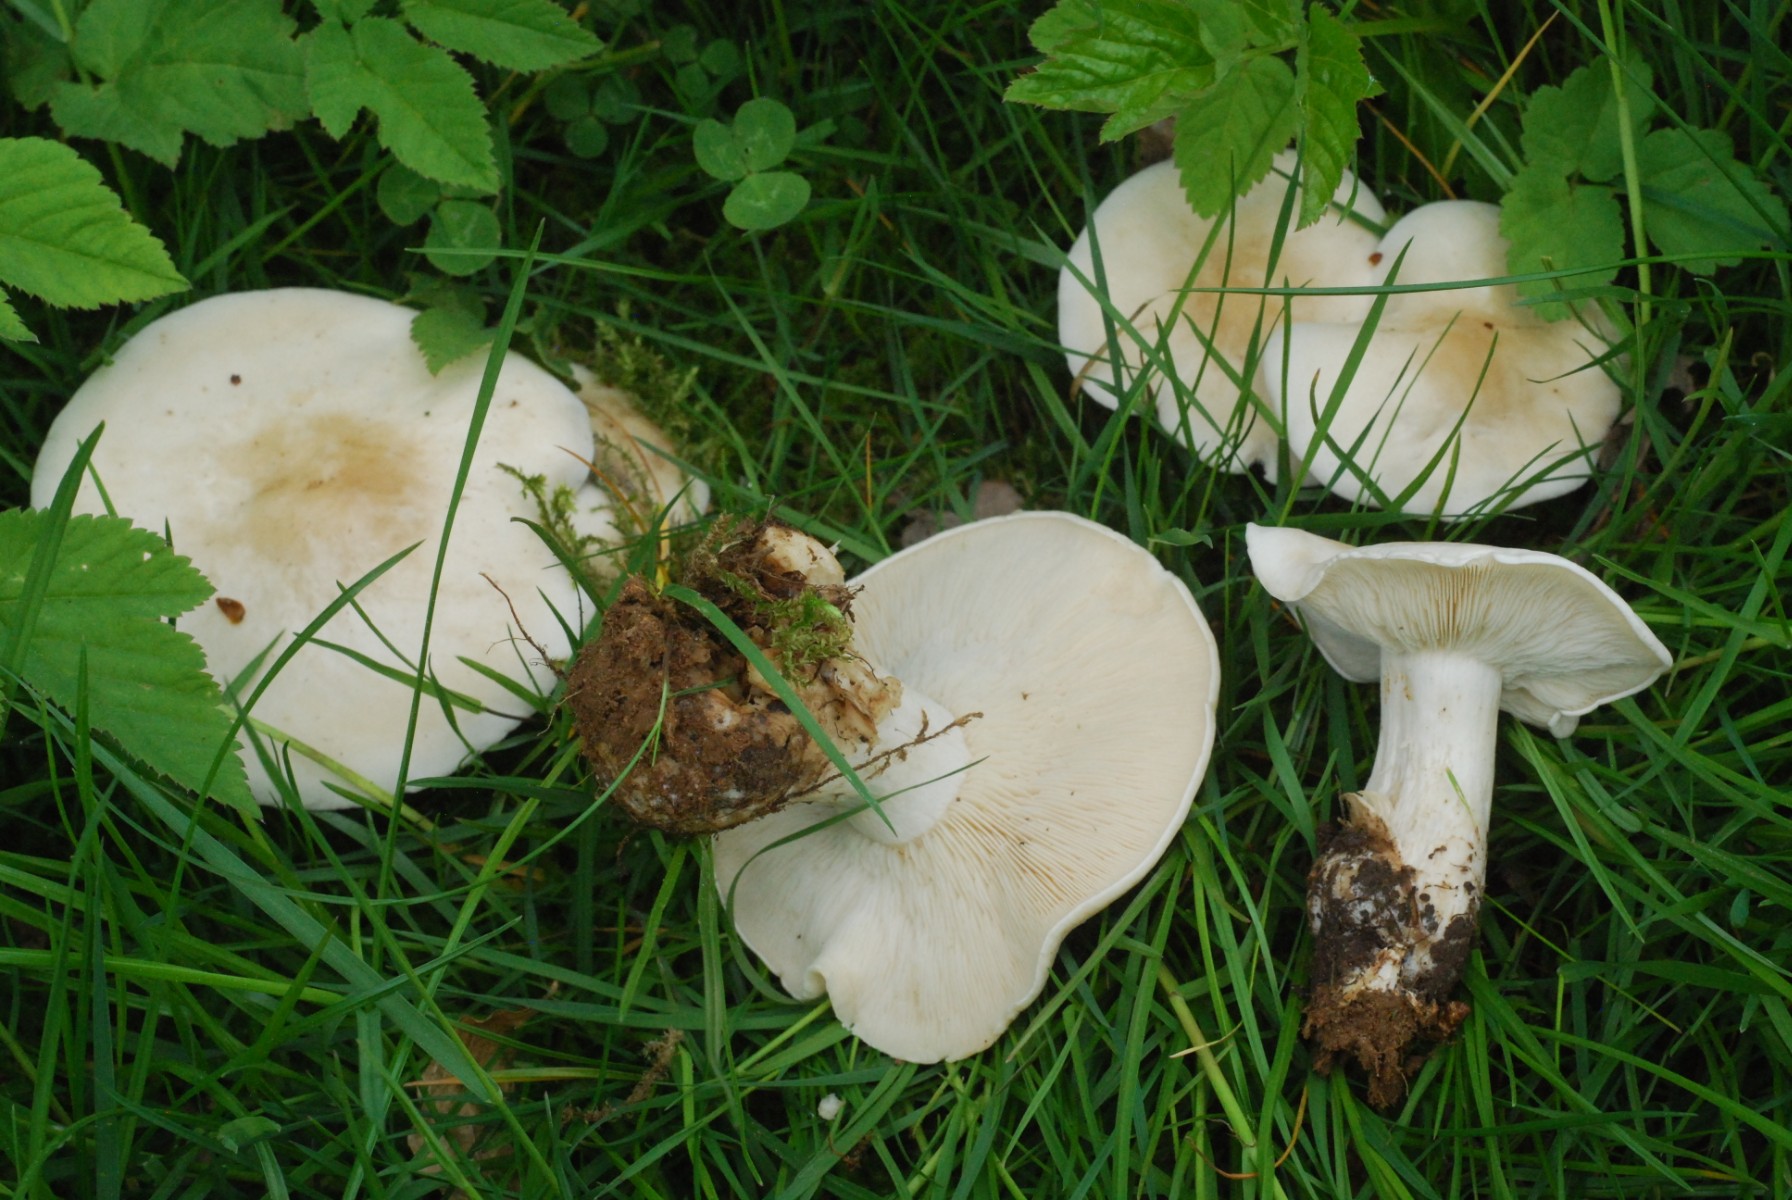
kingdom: Fungi
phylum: Basidiomycota
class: Agaricomycetes
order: Agaricales
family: Lyophyllaceae
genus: Calocybe
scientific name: Calocybe gambosa
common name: vårmusseron
